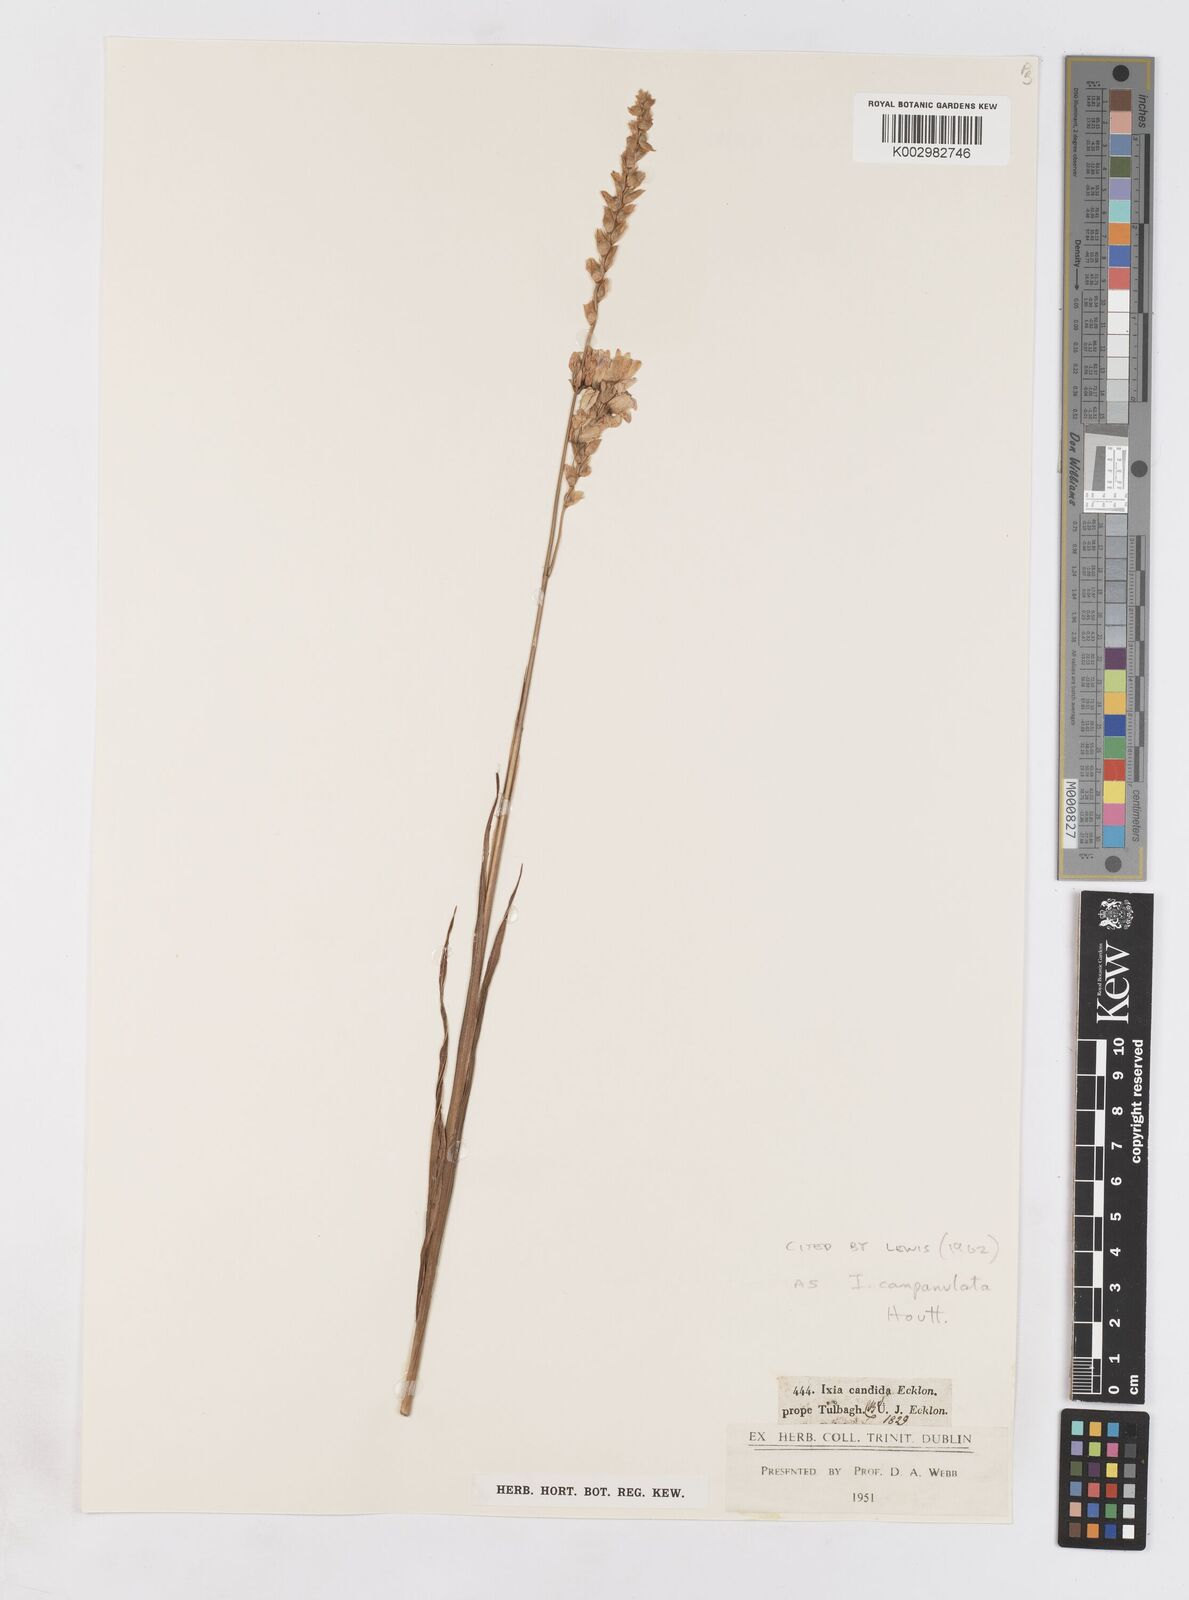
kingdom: Plantae
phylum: Tracheophyta
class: Liliopsida
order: Asparagales
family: Iridaceae
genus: Ixia
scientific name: Ixia campanulata
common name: Red corn-lily
